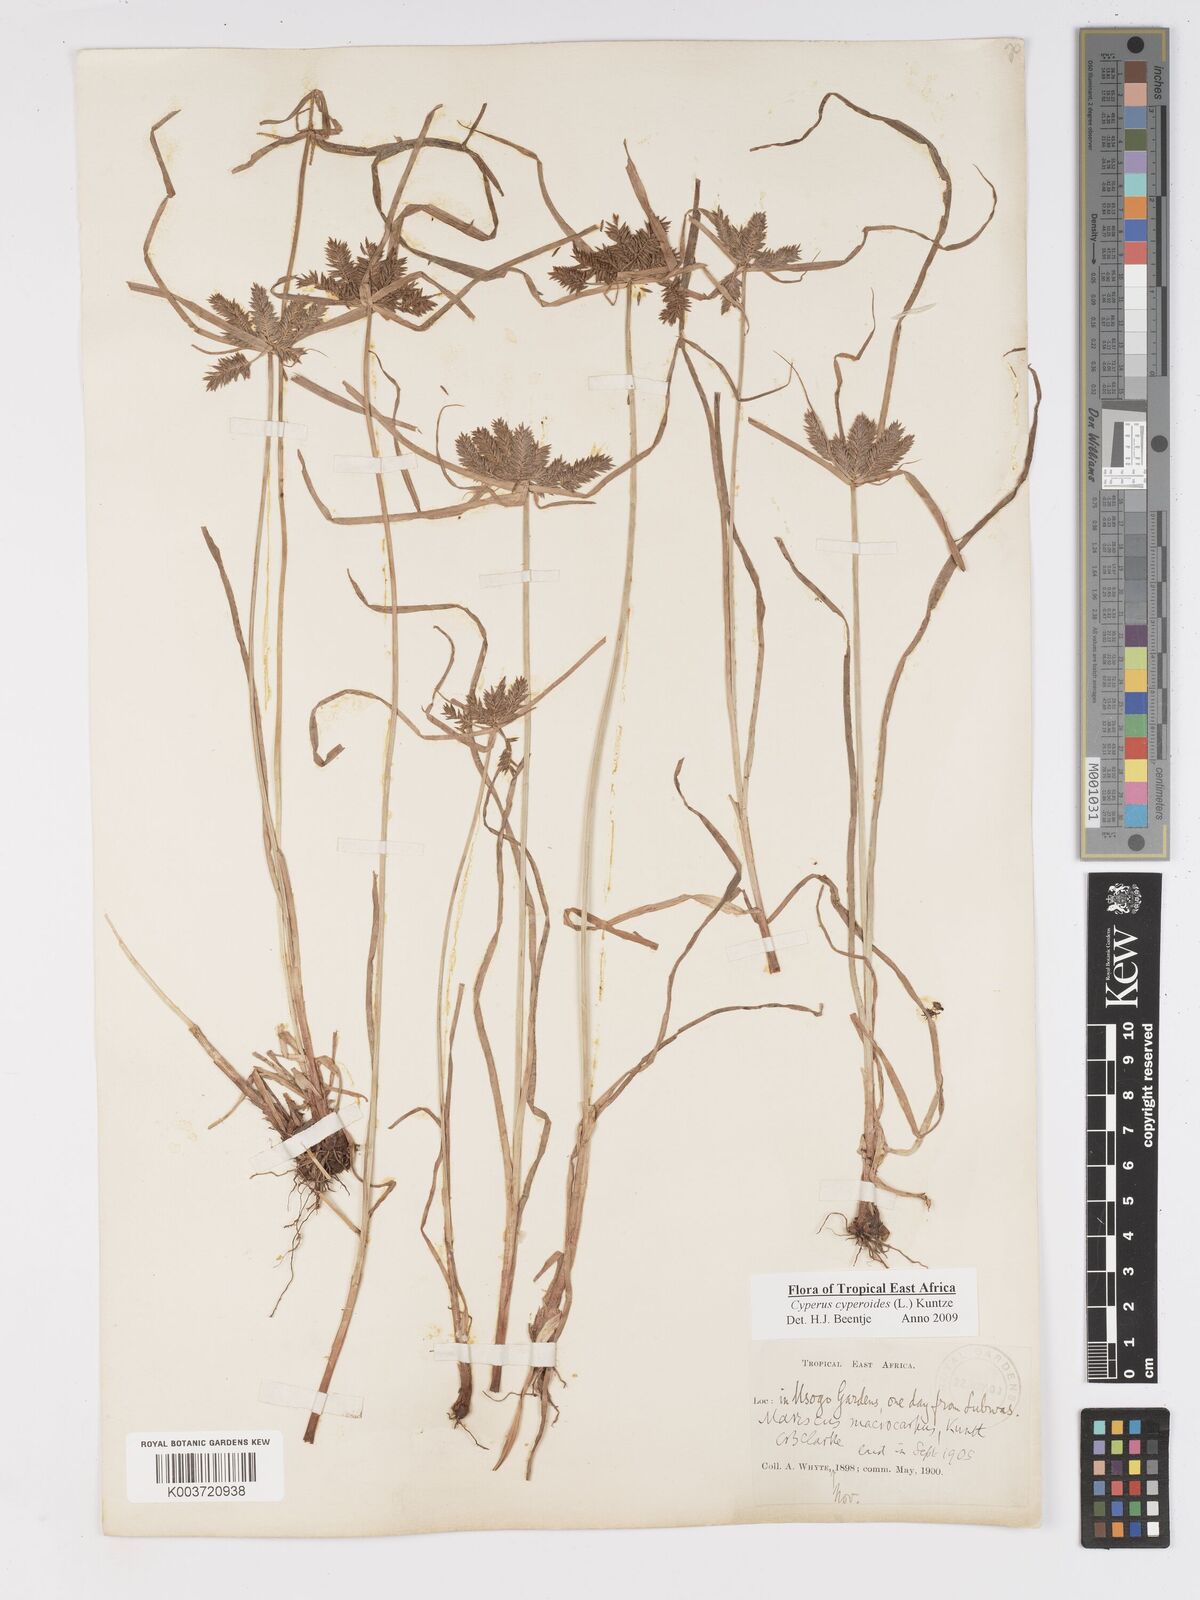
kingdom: Plantae
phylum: Tracheophyta
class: Liliopsida
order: Poales
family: Cyperaceae
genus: Cyperus
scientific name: Cyperus macrocarpus
